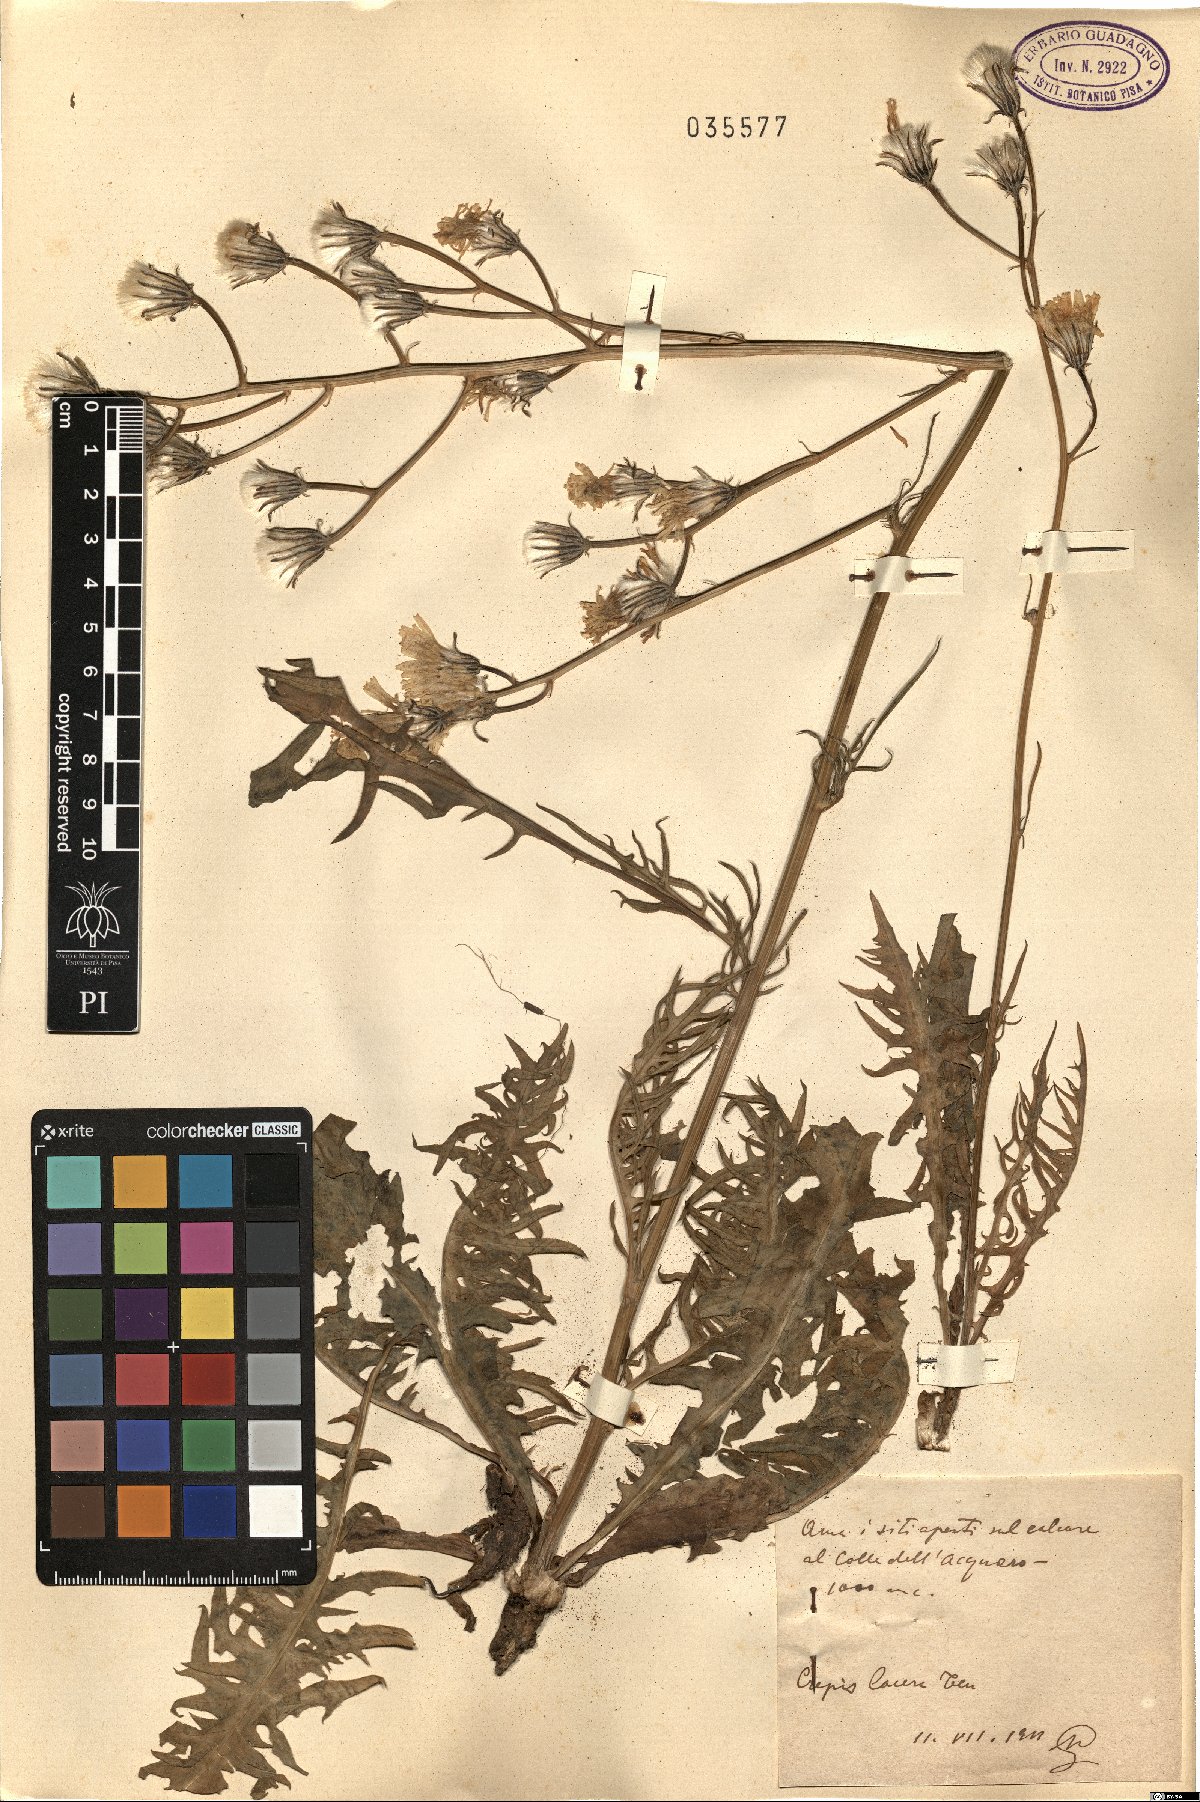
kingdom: Plantae
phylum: Tracheophyta
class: Magnoliopsida
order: Asterales
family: Asteraceae
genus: Crepis
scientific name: Crepis lacera
